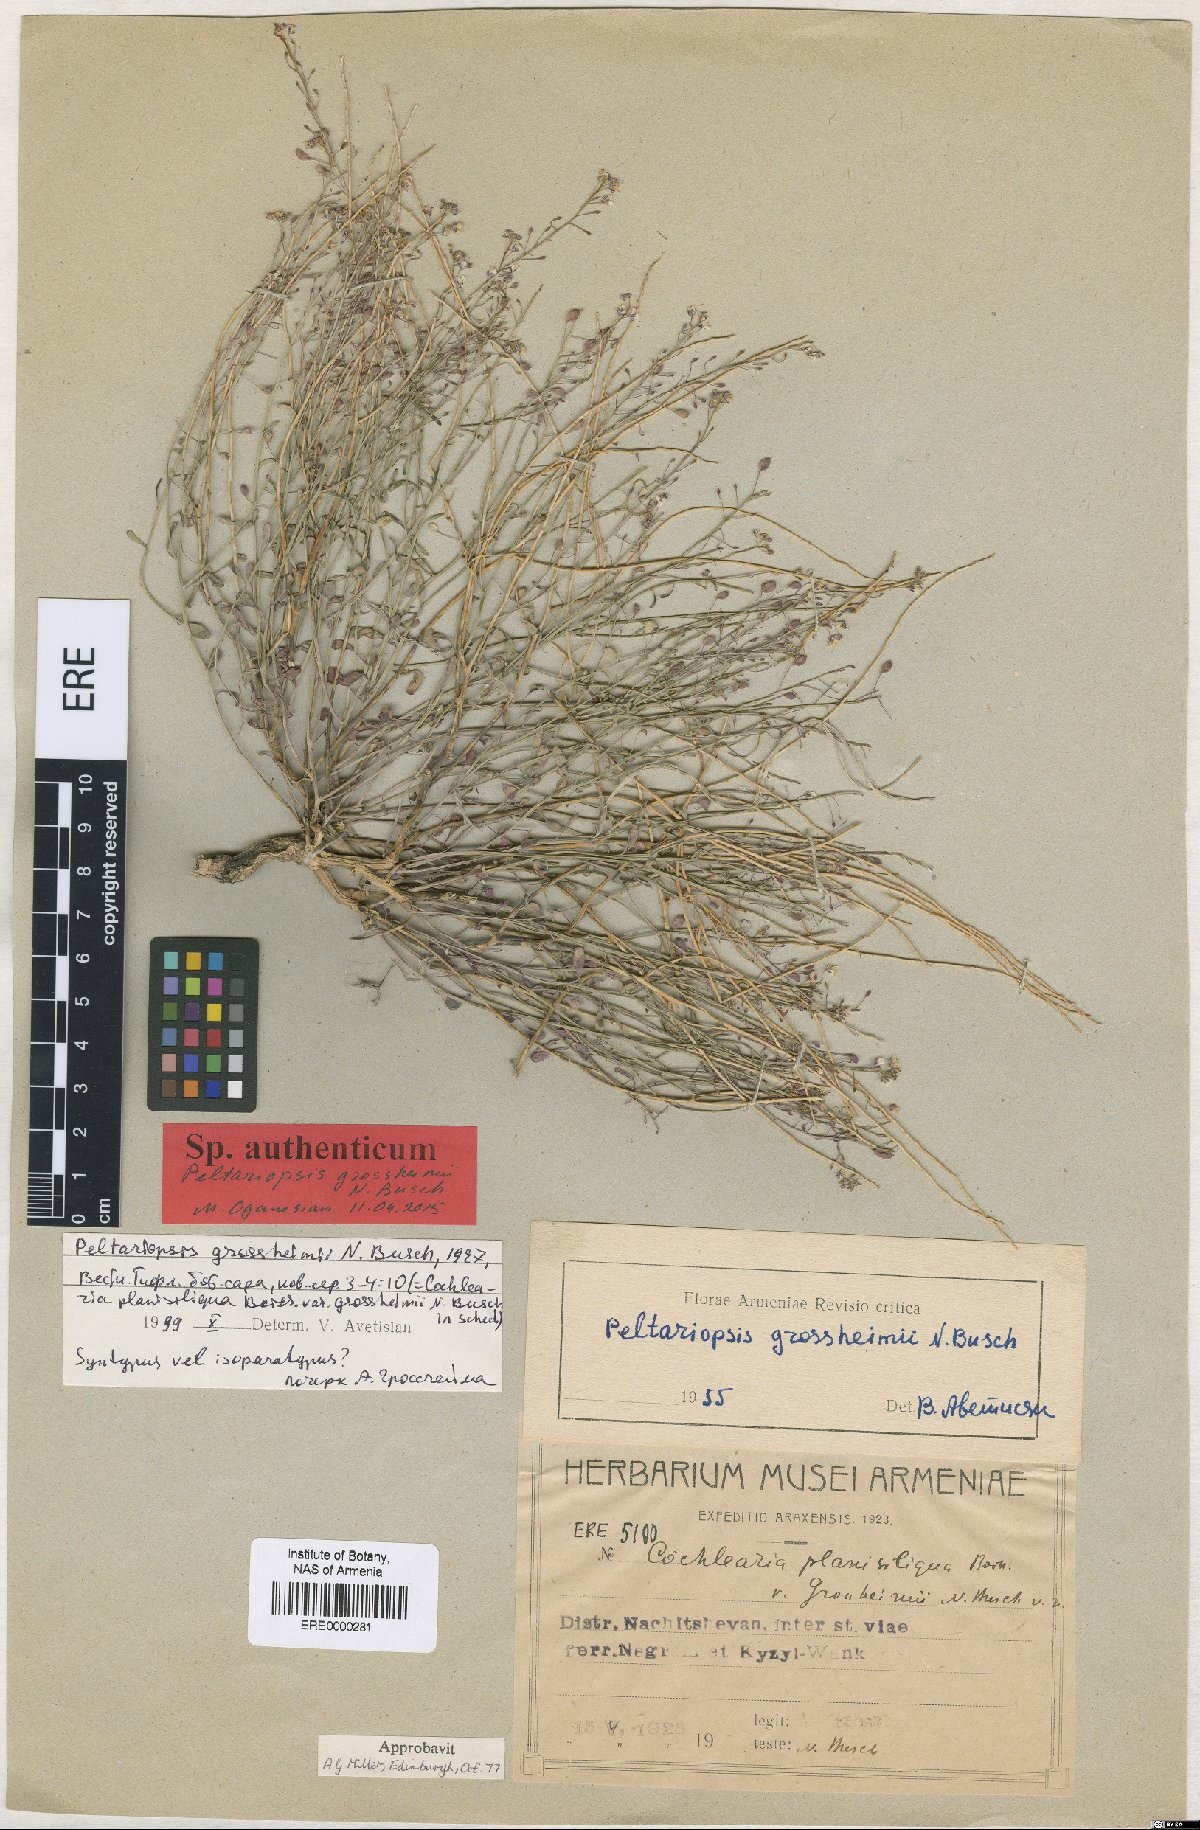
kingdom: Plantae
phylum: Tracheophyta
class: Magnoliopsida
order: Brassicales
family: Brassicaceae
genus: Peltariopsis
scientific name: Peltariopsis grossheimii
